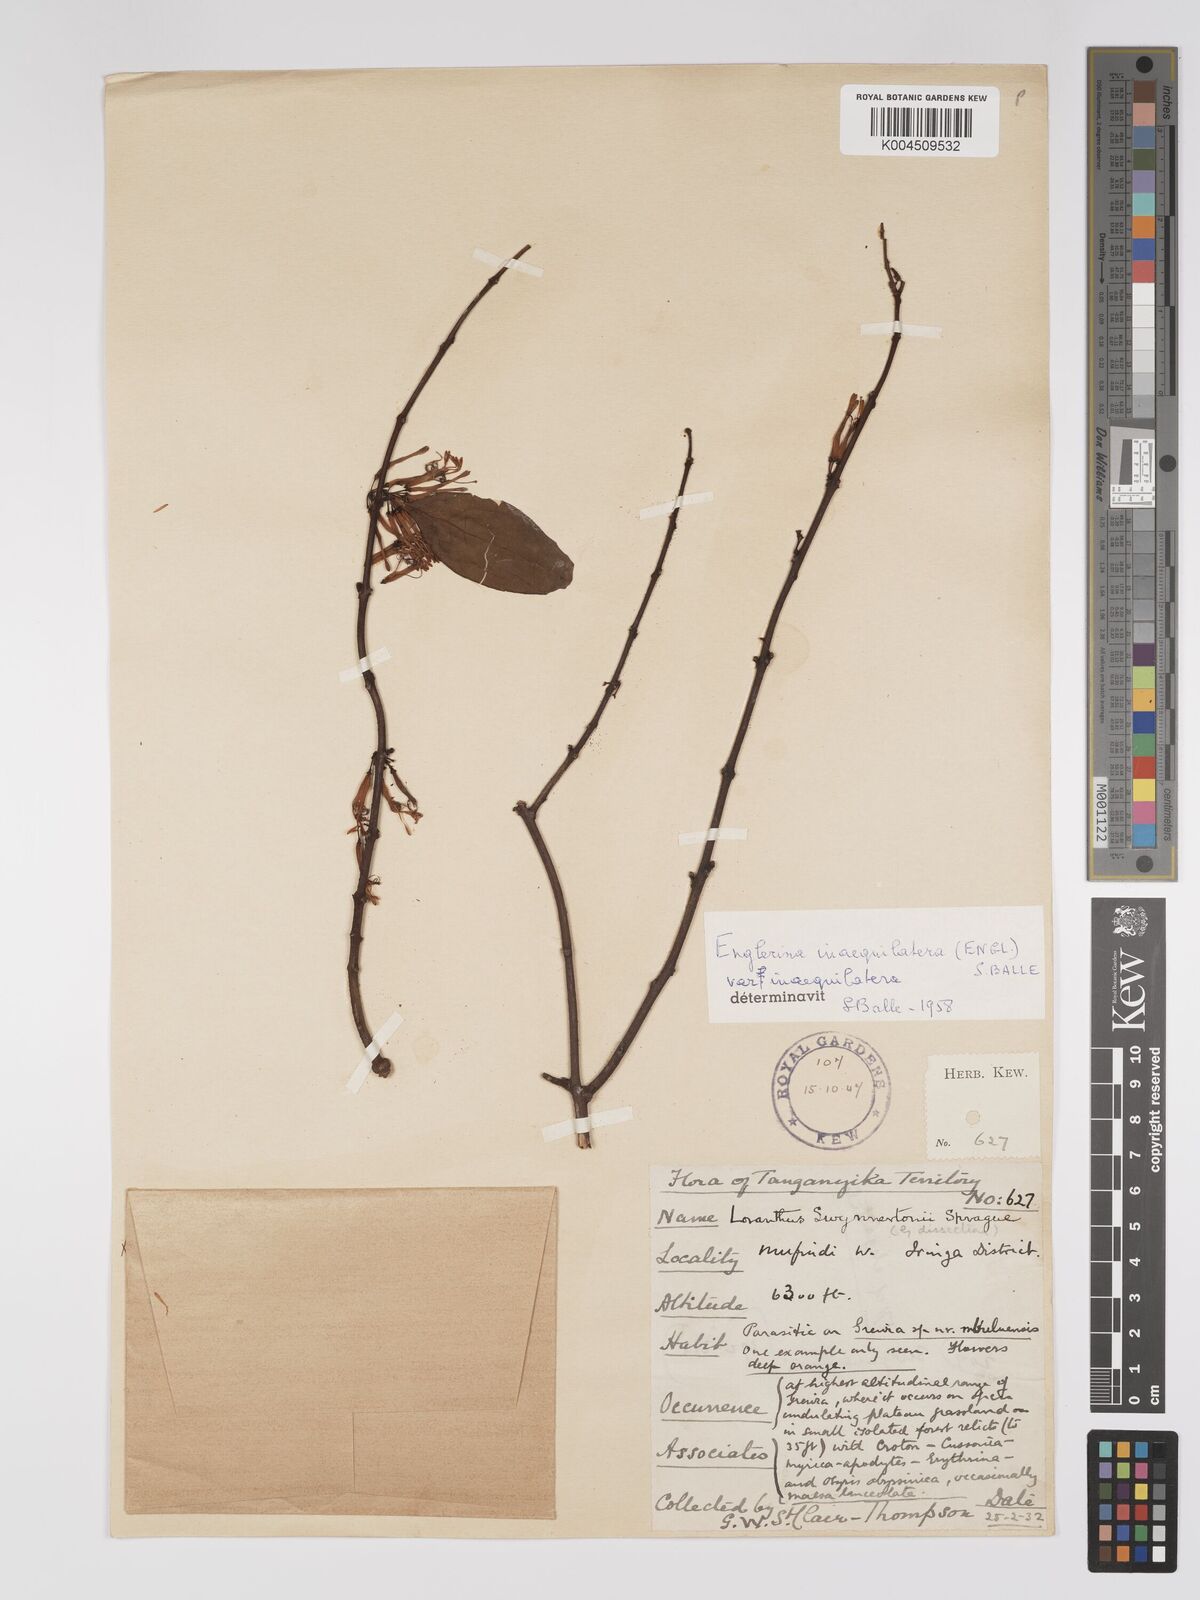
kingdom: Plantae
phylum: Tracheophyta
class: Magnoliopsida
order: Santalales
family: Loranthaceae
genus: Englerina
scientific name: Englerina inaequilatera
